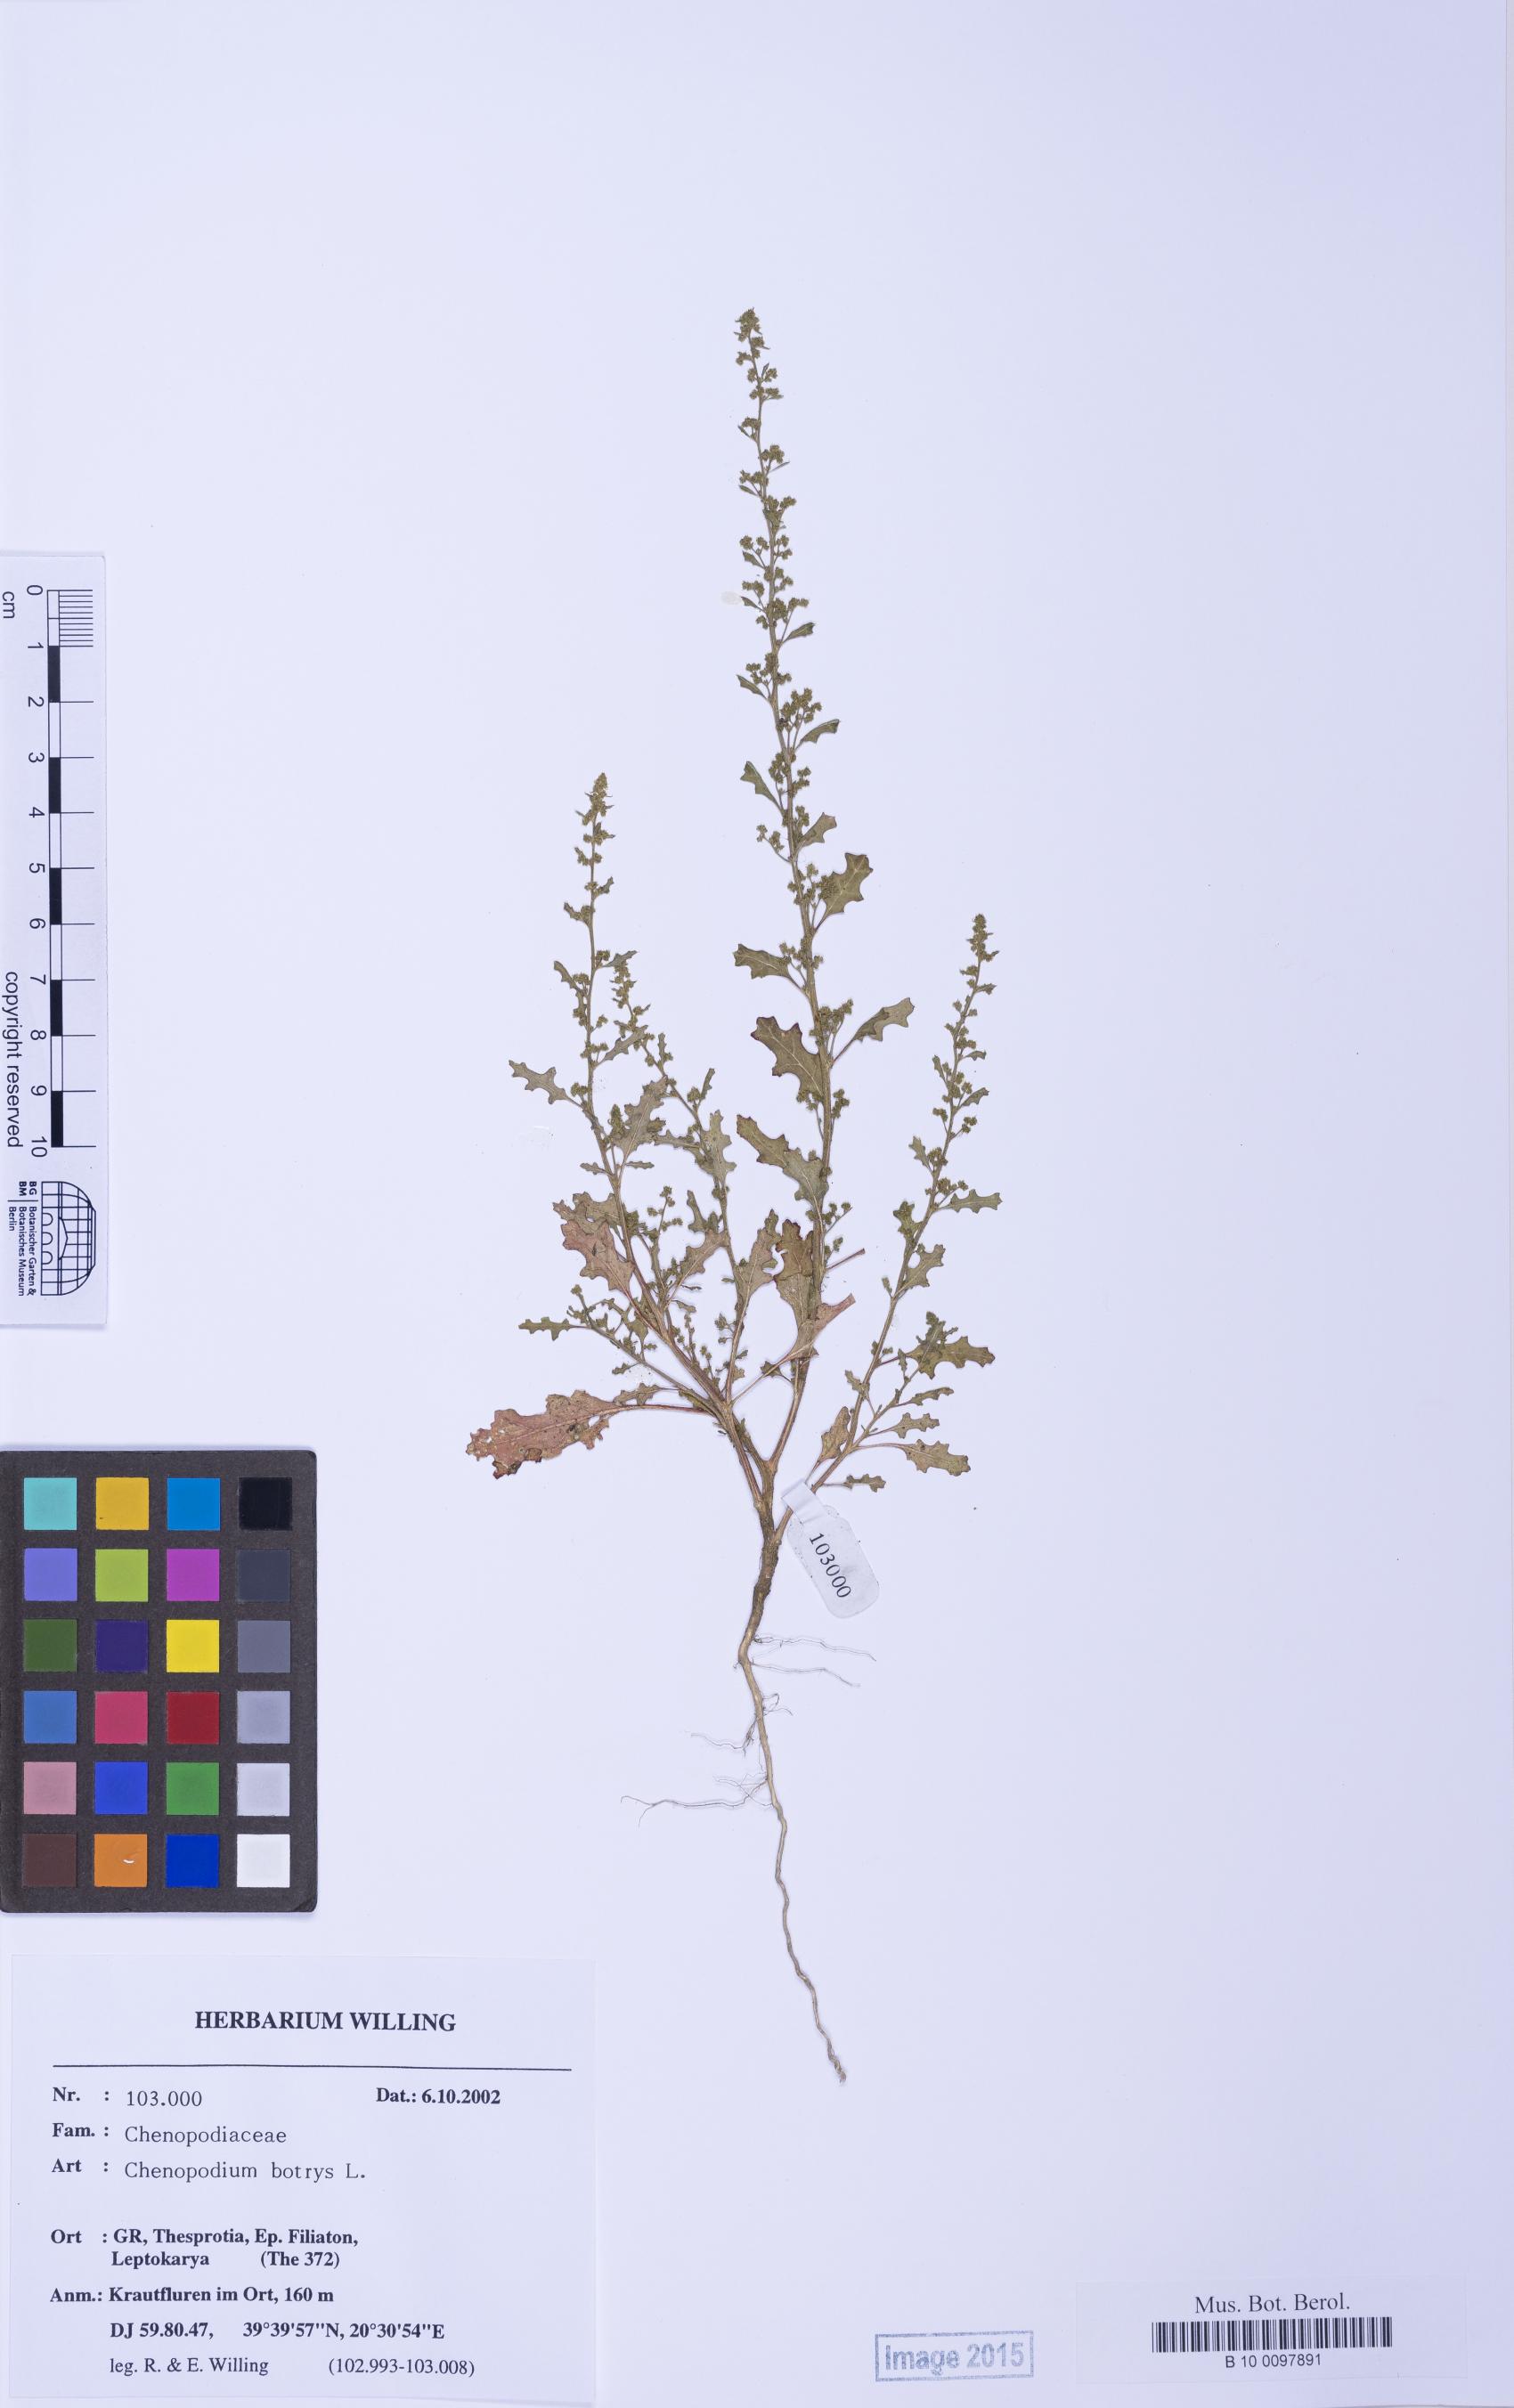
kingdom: Plantae
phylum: Tracheophyta
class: Magnoliopsida
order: Caryophyllales
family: Amaranthaceae
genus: Dysphania
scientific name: Dysphania botrys
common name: Feather-geranium
